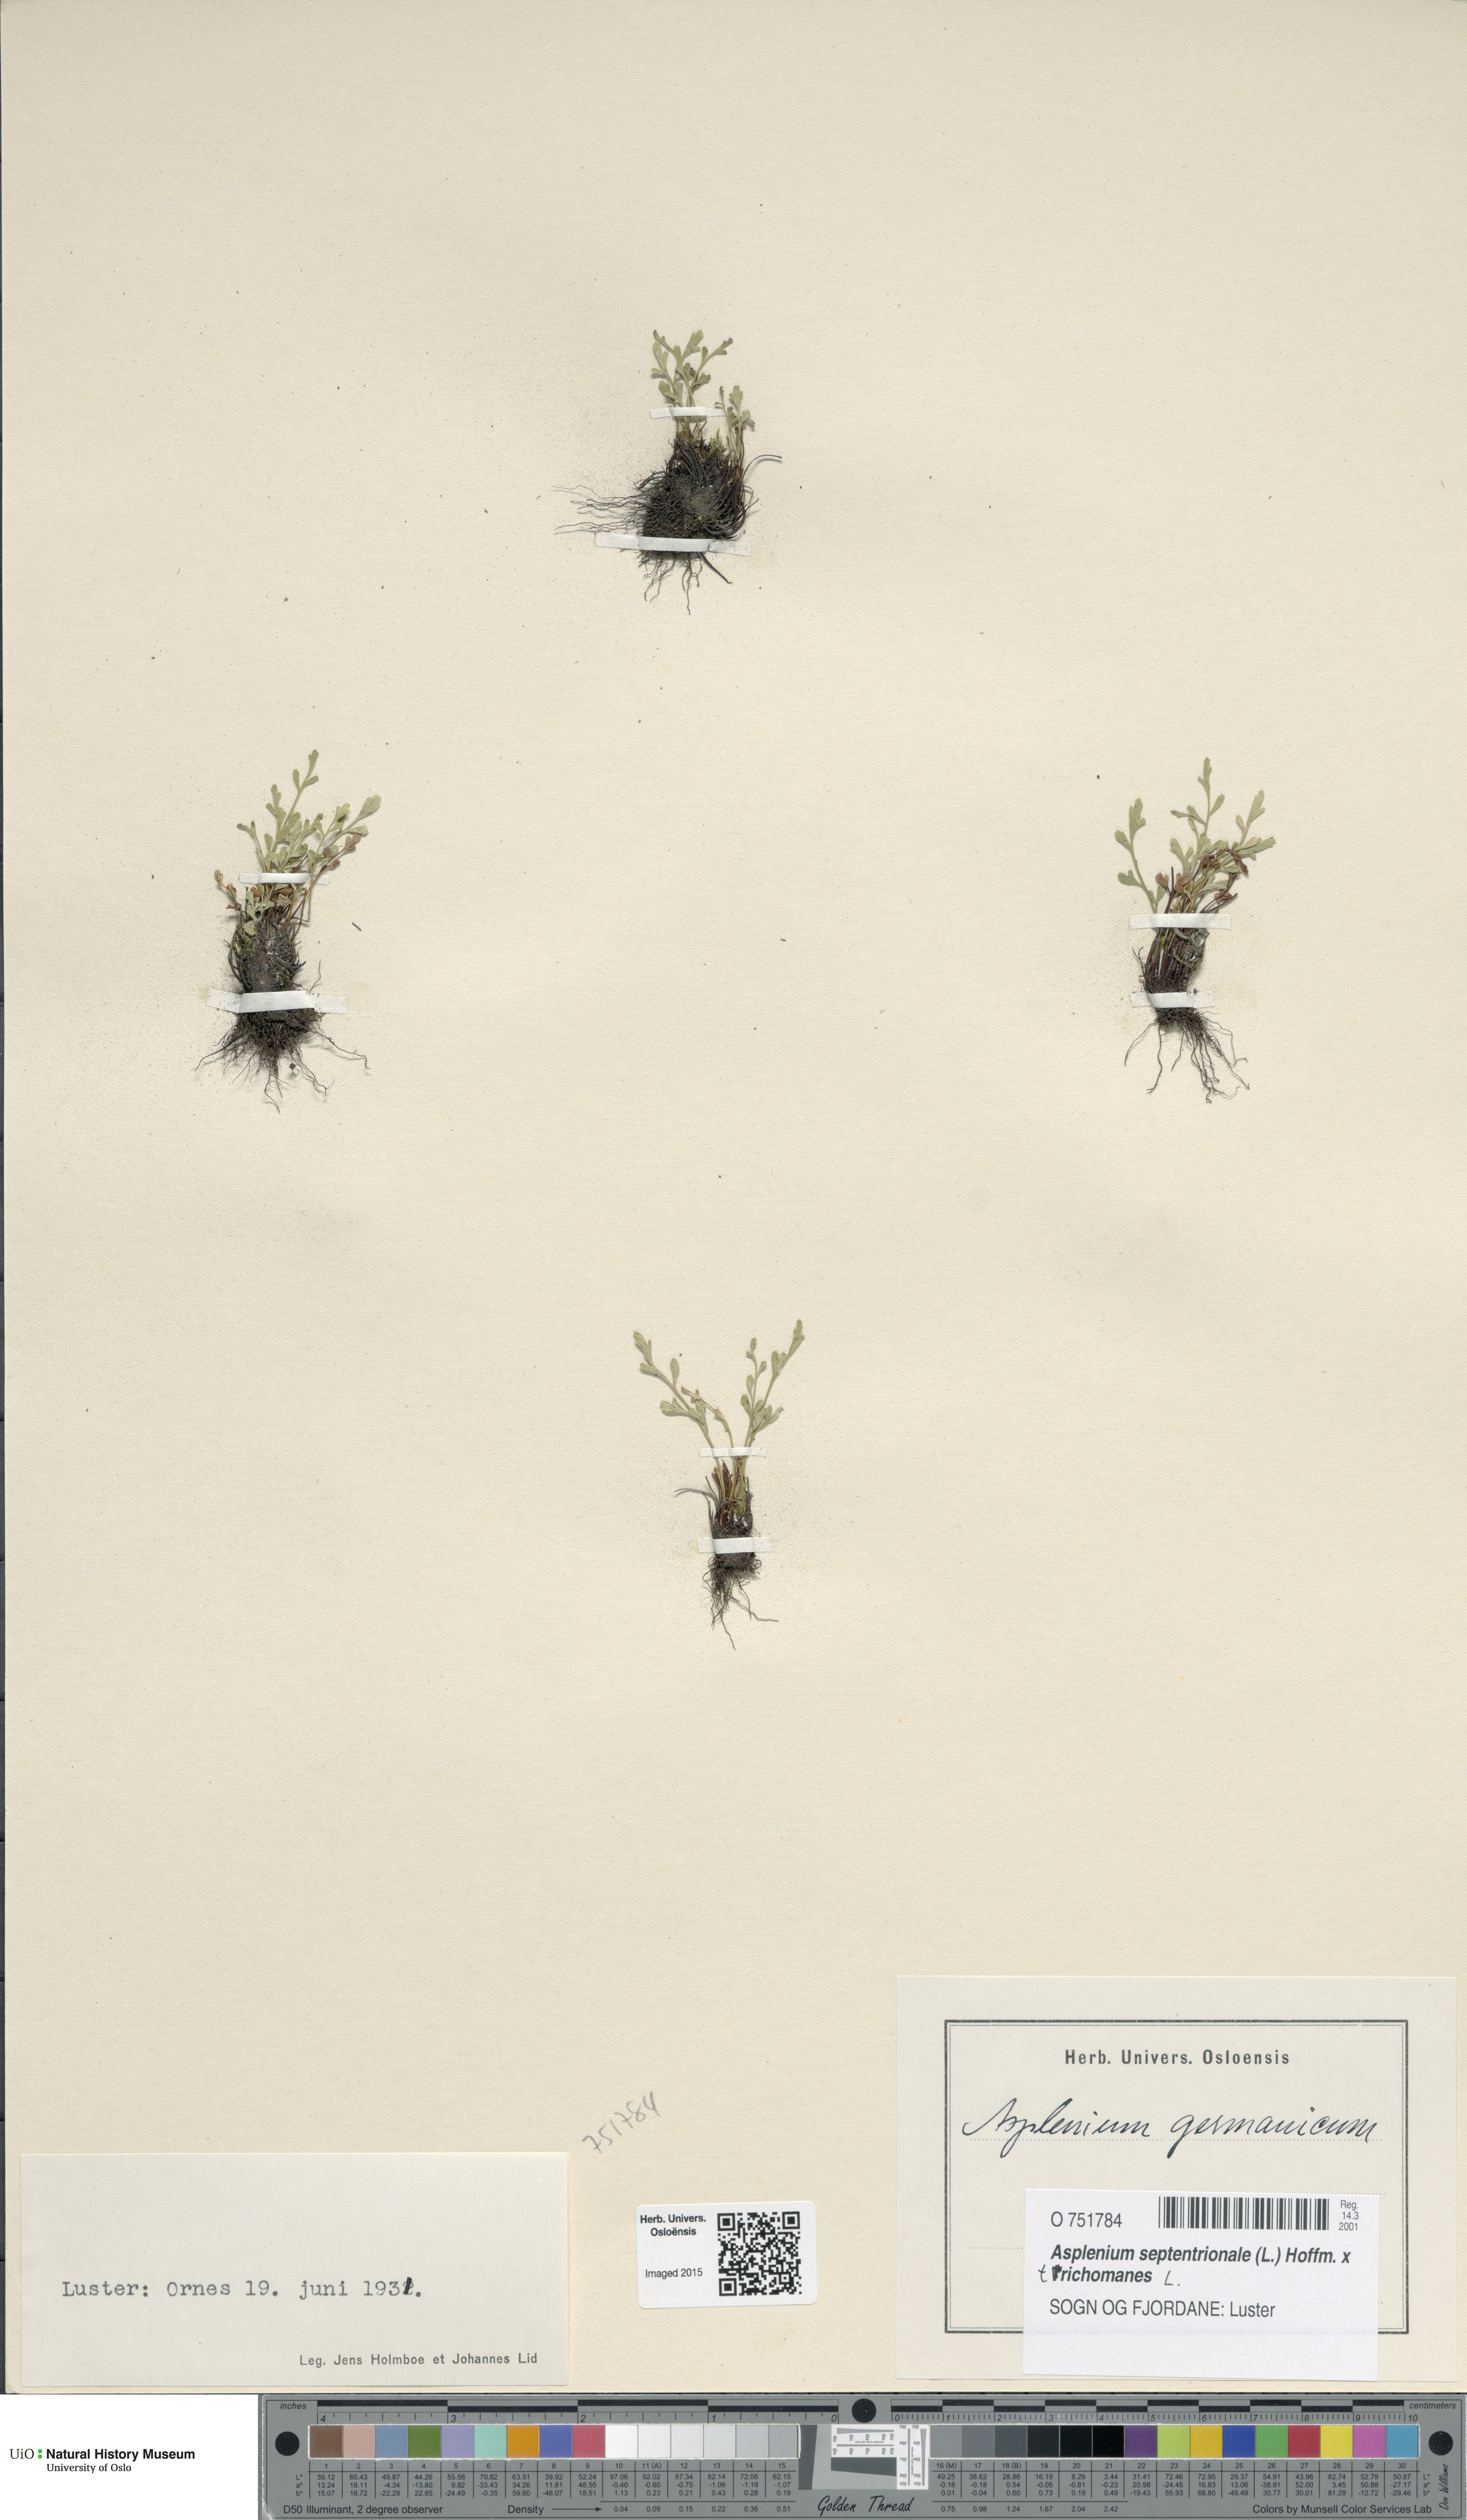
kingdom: Plantae
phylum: Tracheophyta
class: Polypodiopsida
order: Polypodiales
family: Aspleniaceae
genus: Asplenium
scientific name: Asplenium
